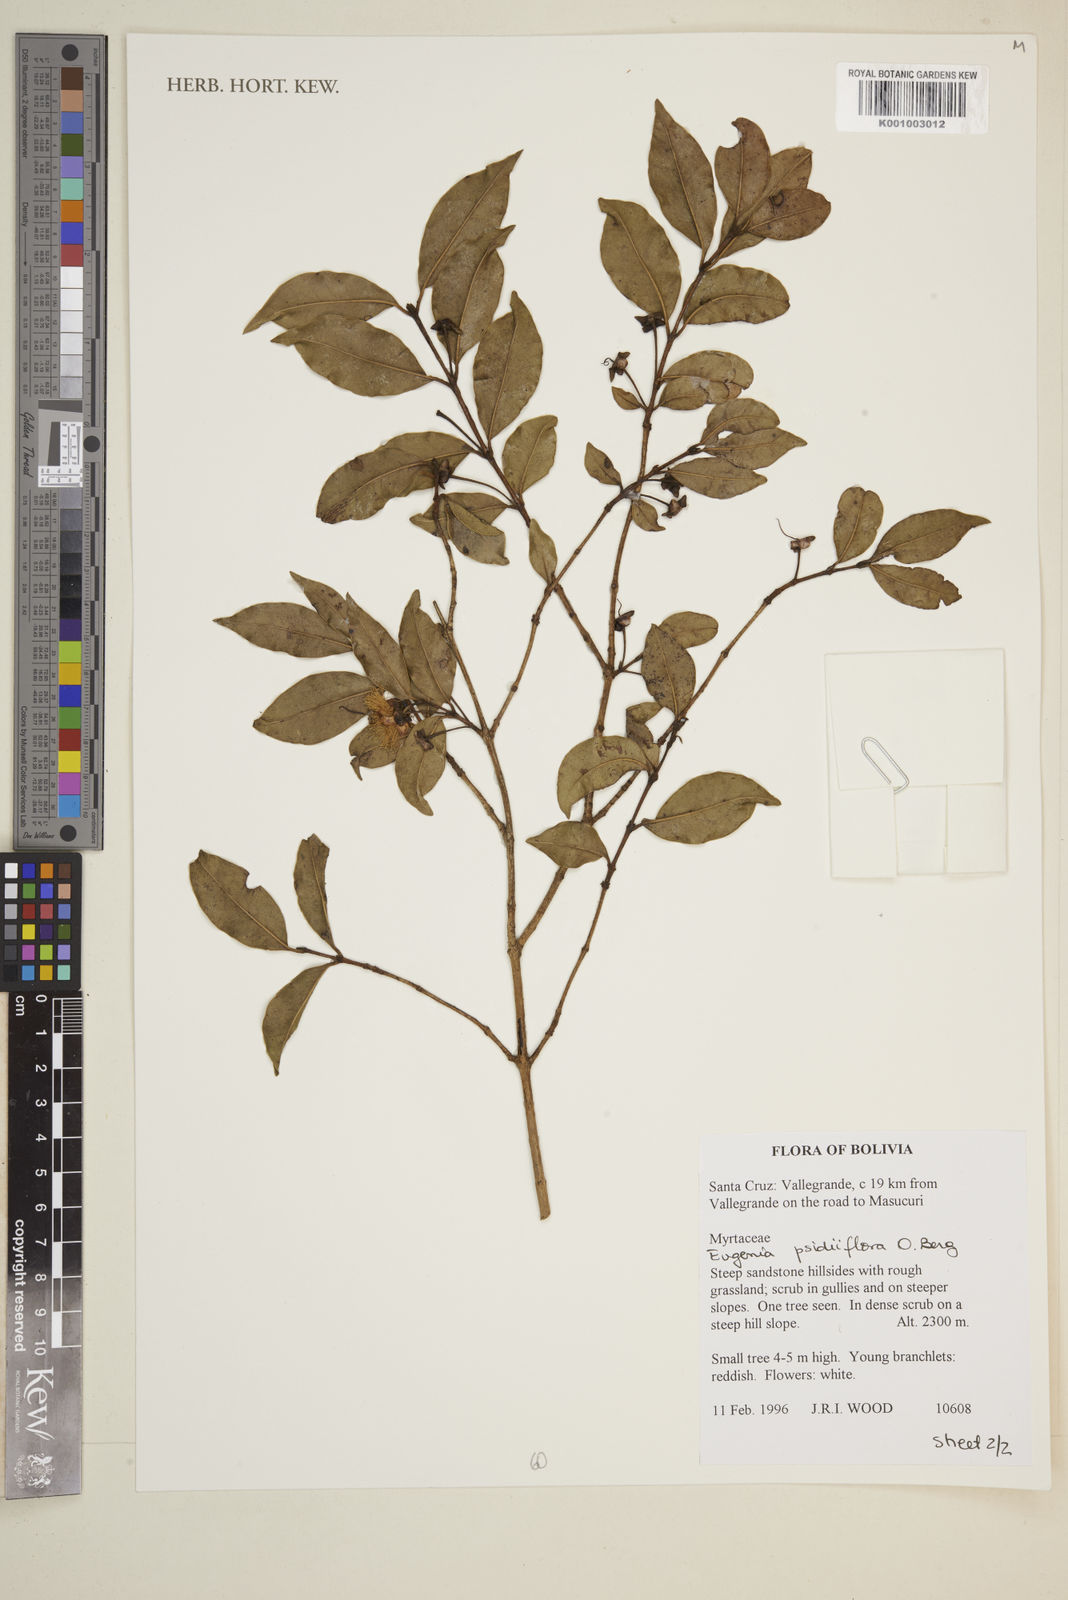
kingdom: Plantae
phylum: Tracheophyta
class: Magnoliopsida
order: Myrtales
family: Myrtaceae
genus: Eugenia
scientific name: Eugenia psidiiflora
